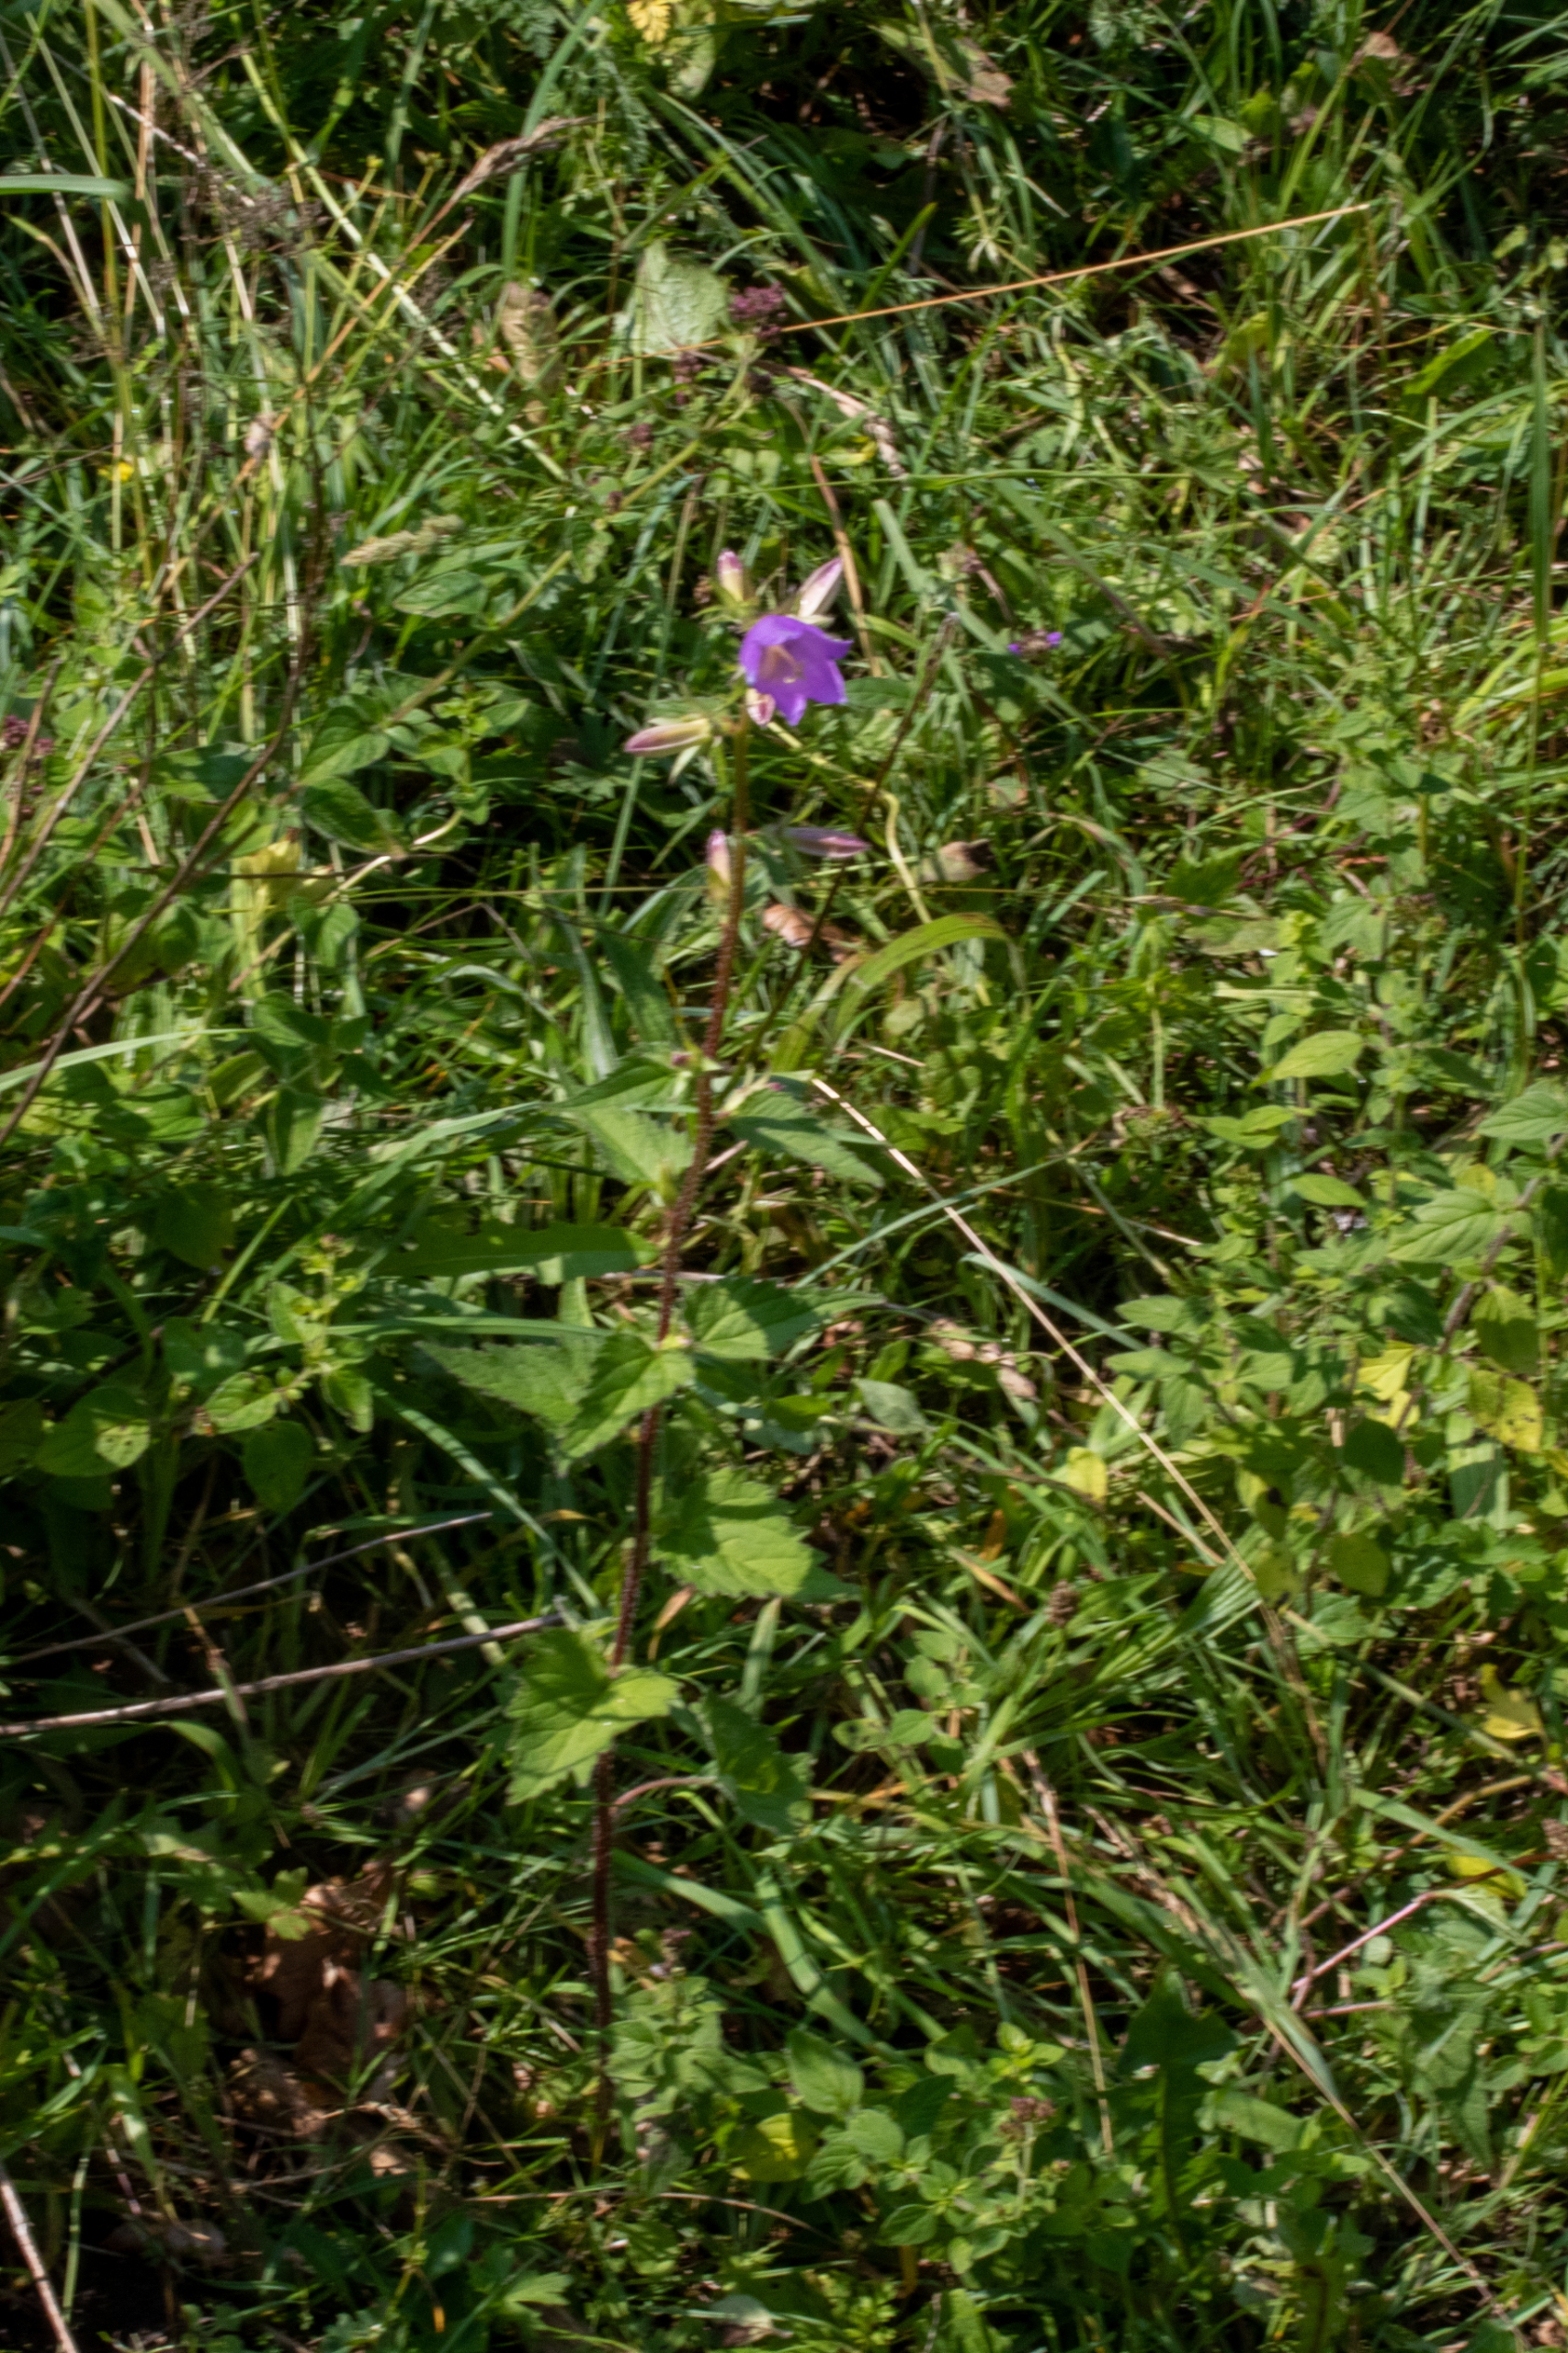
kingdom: Plantae
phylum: Tracheophyta
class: Magnoliopsida
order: Asterales
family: Campanulaceae
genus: Campanula
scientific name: Campanula trachelium
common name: Nælde-klokke
